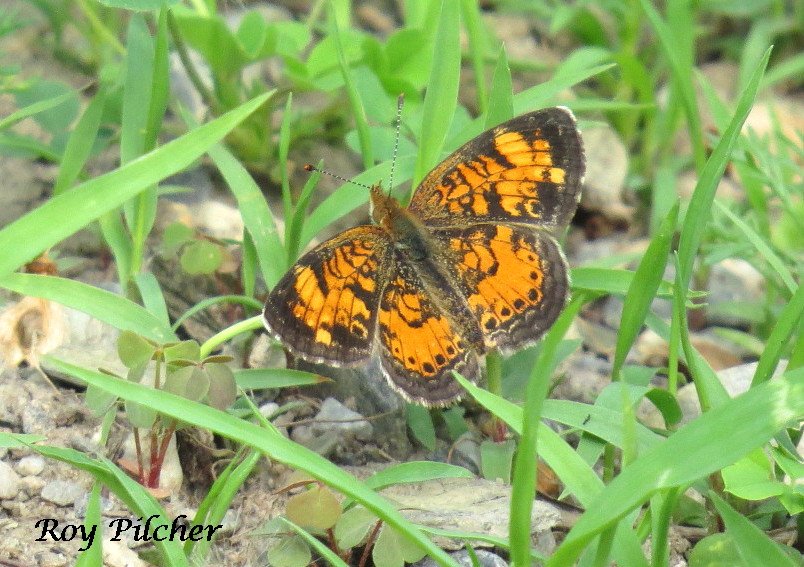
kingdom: Animalia
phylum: Arthropoda
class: Insecta
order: Lepidoptera
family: Nymphalidae
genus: Phyciodes
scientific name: Phyciodes tharos
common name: Northern Crescent
